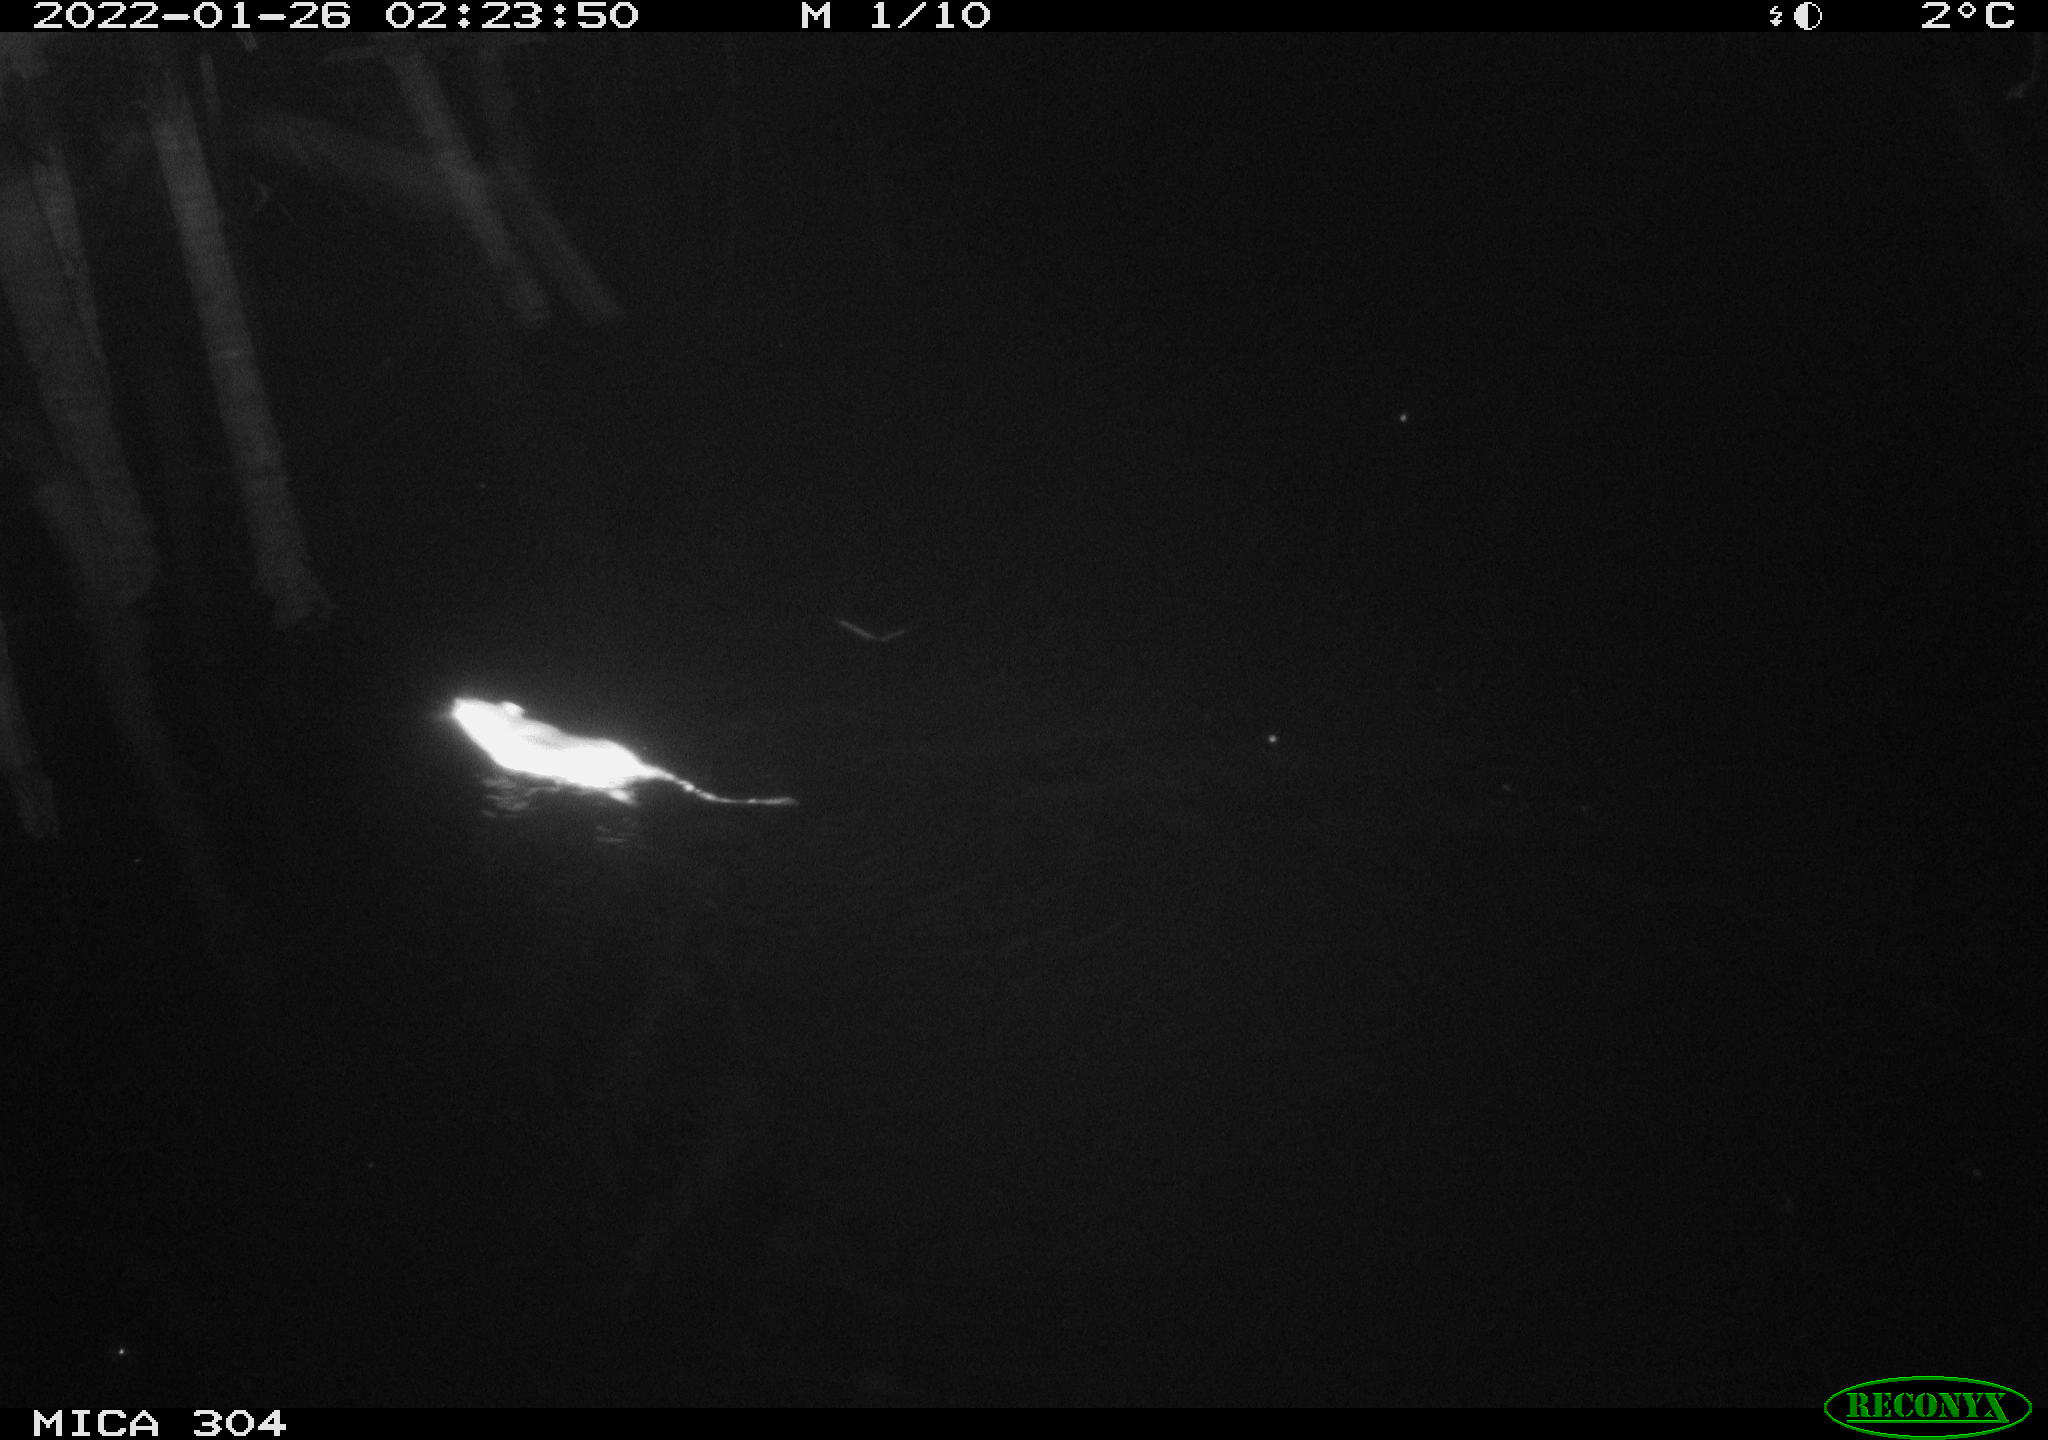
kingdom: Animalia
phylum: Chordata
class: Mammalia
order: Rodentia
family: Muridae
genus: Rattus
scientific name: Rattus norvegicus
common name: Brown rat
